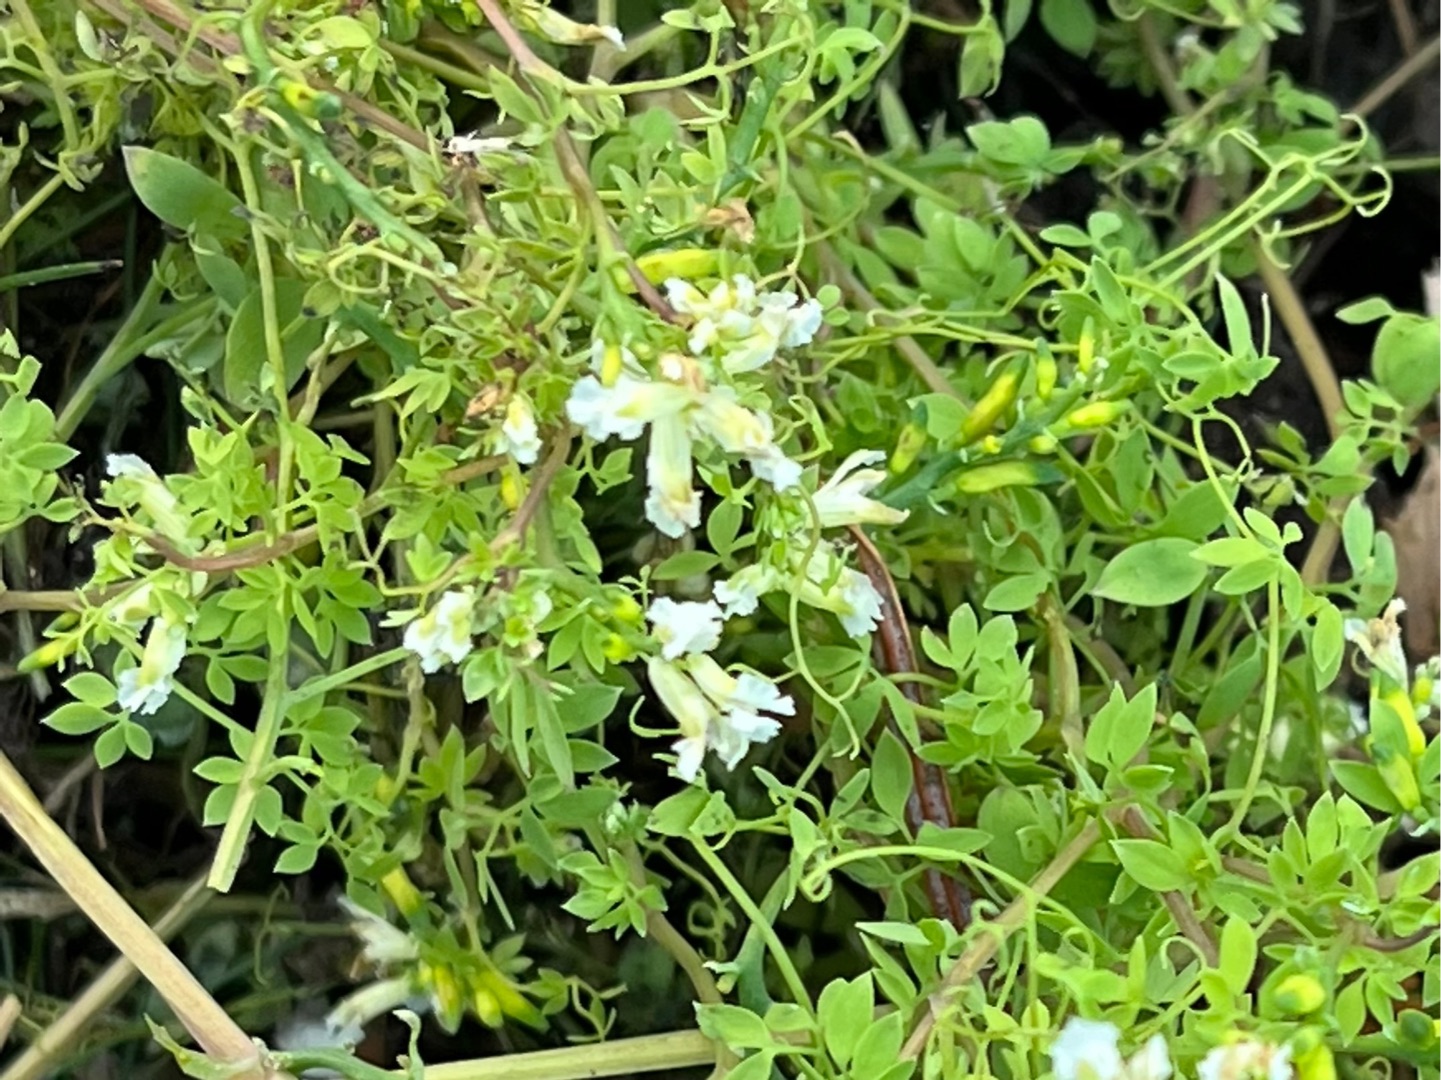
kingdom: Plantae
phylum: Tracheophyta
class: Magnoliopsida
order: Ranunculales
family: Papaveraceae
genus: Ceratocapnos
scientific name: Ceratocapnos claviculata
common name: Klatrende lærkespore
